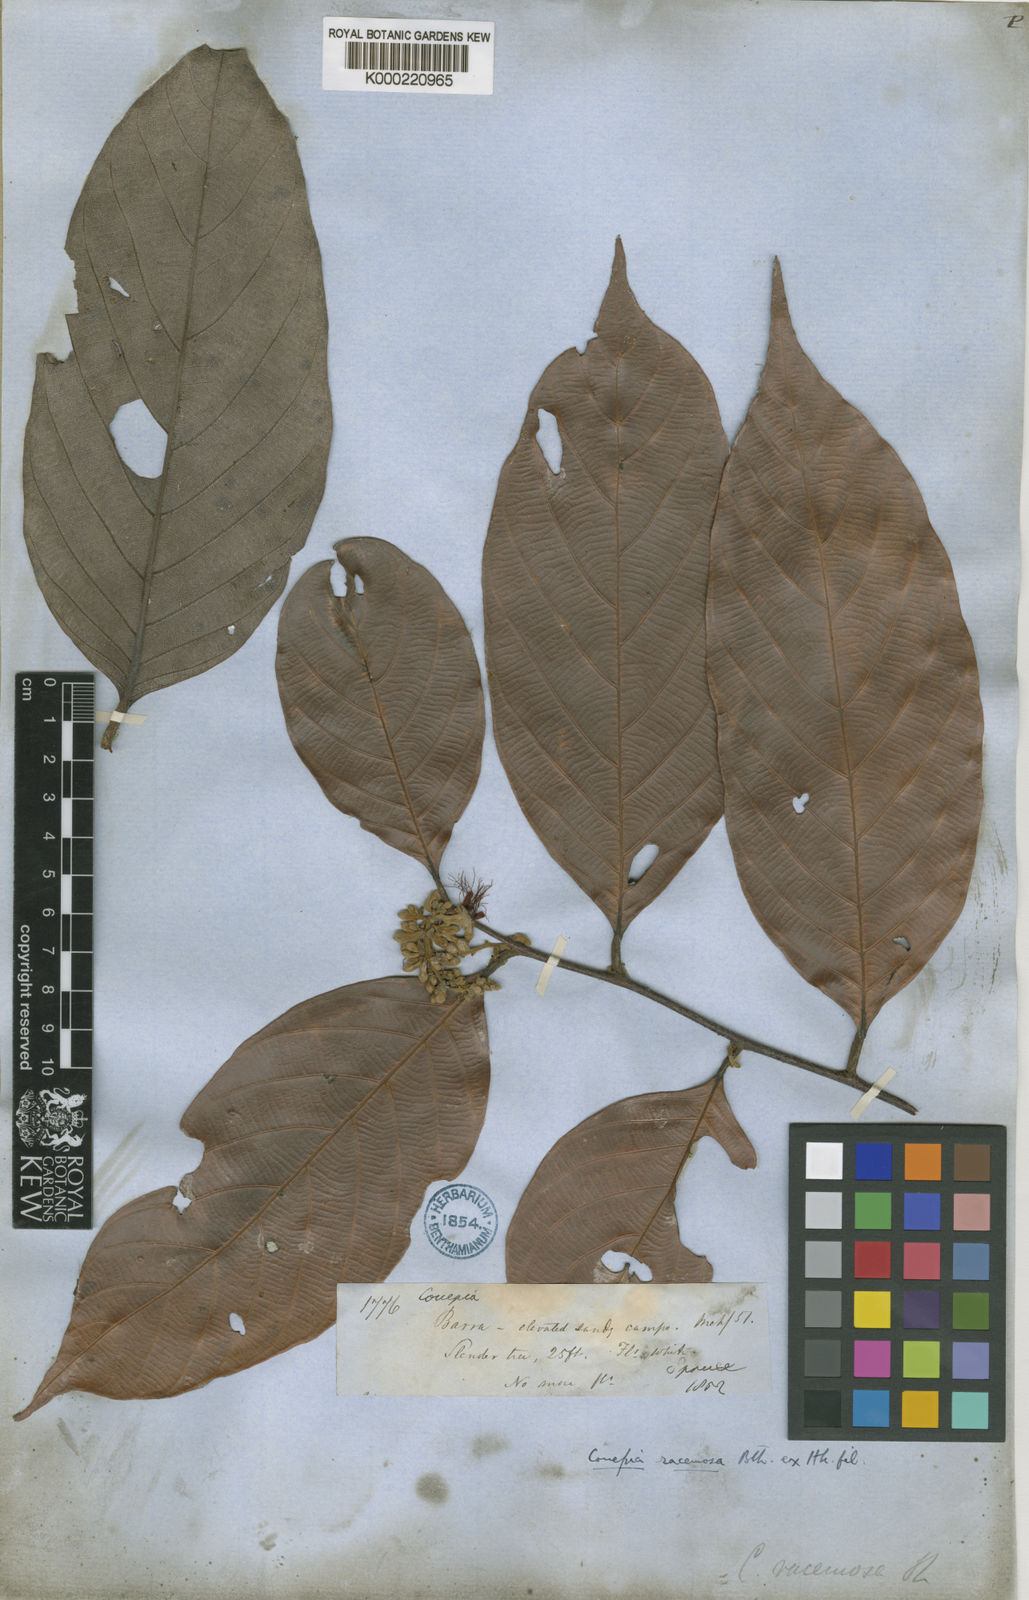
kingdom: Plantae
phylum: Tracheophyta
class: Magnoliopsida
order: Malpighiales
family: Chrysobalanaceae
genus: Gaulettia
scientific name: Gaulettia racemosa
